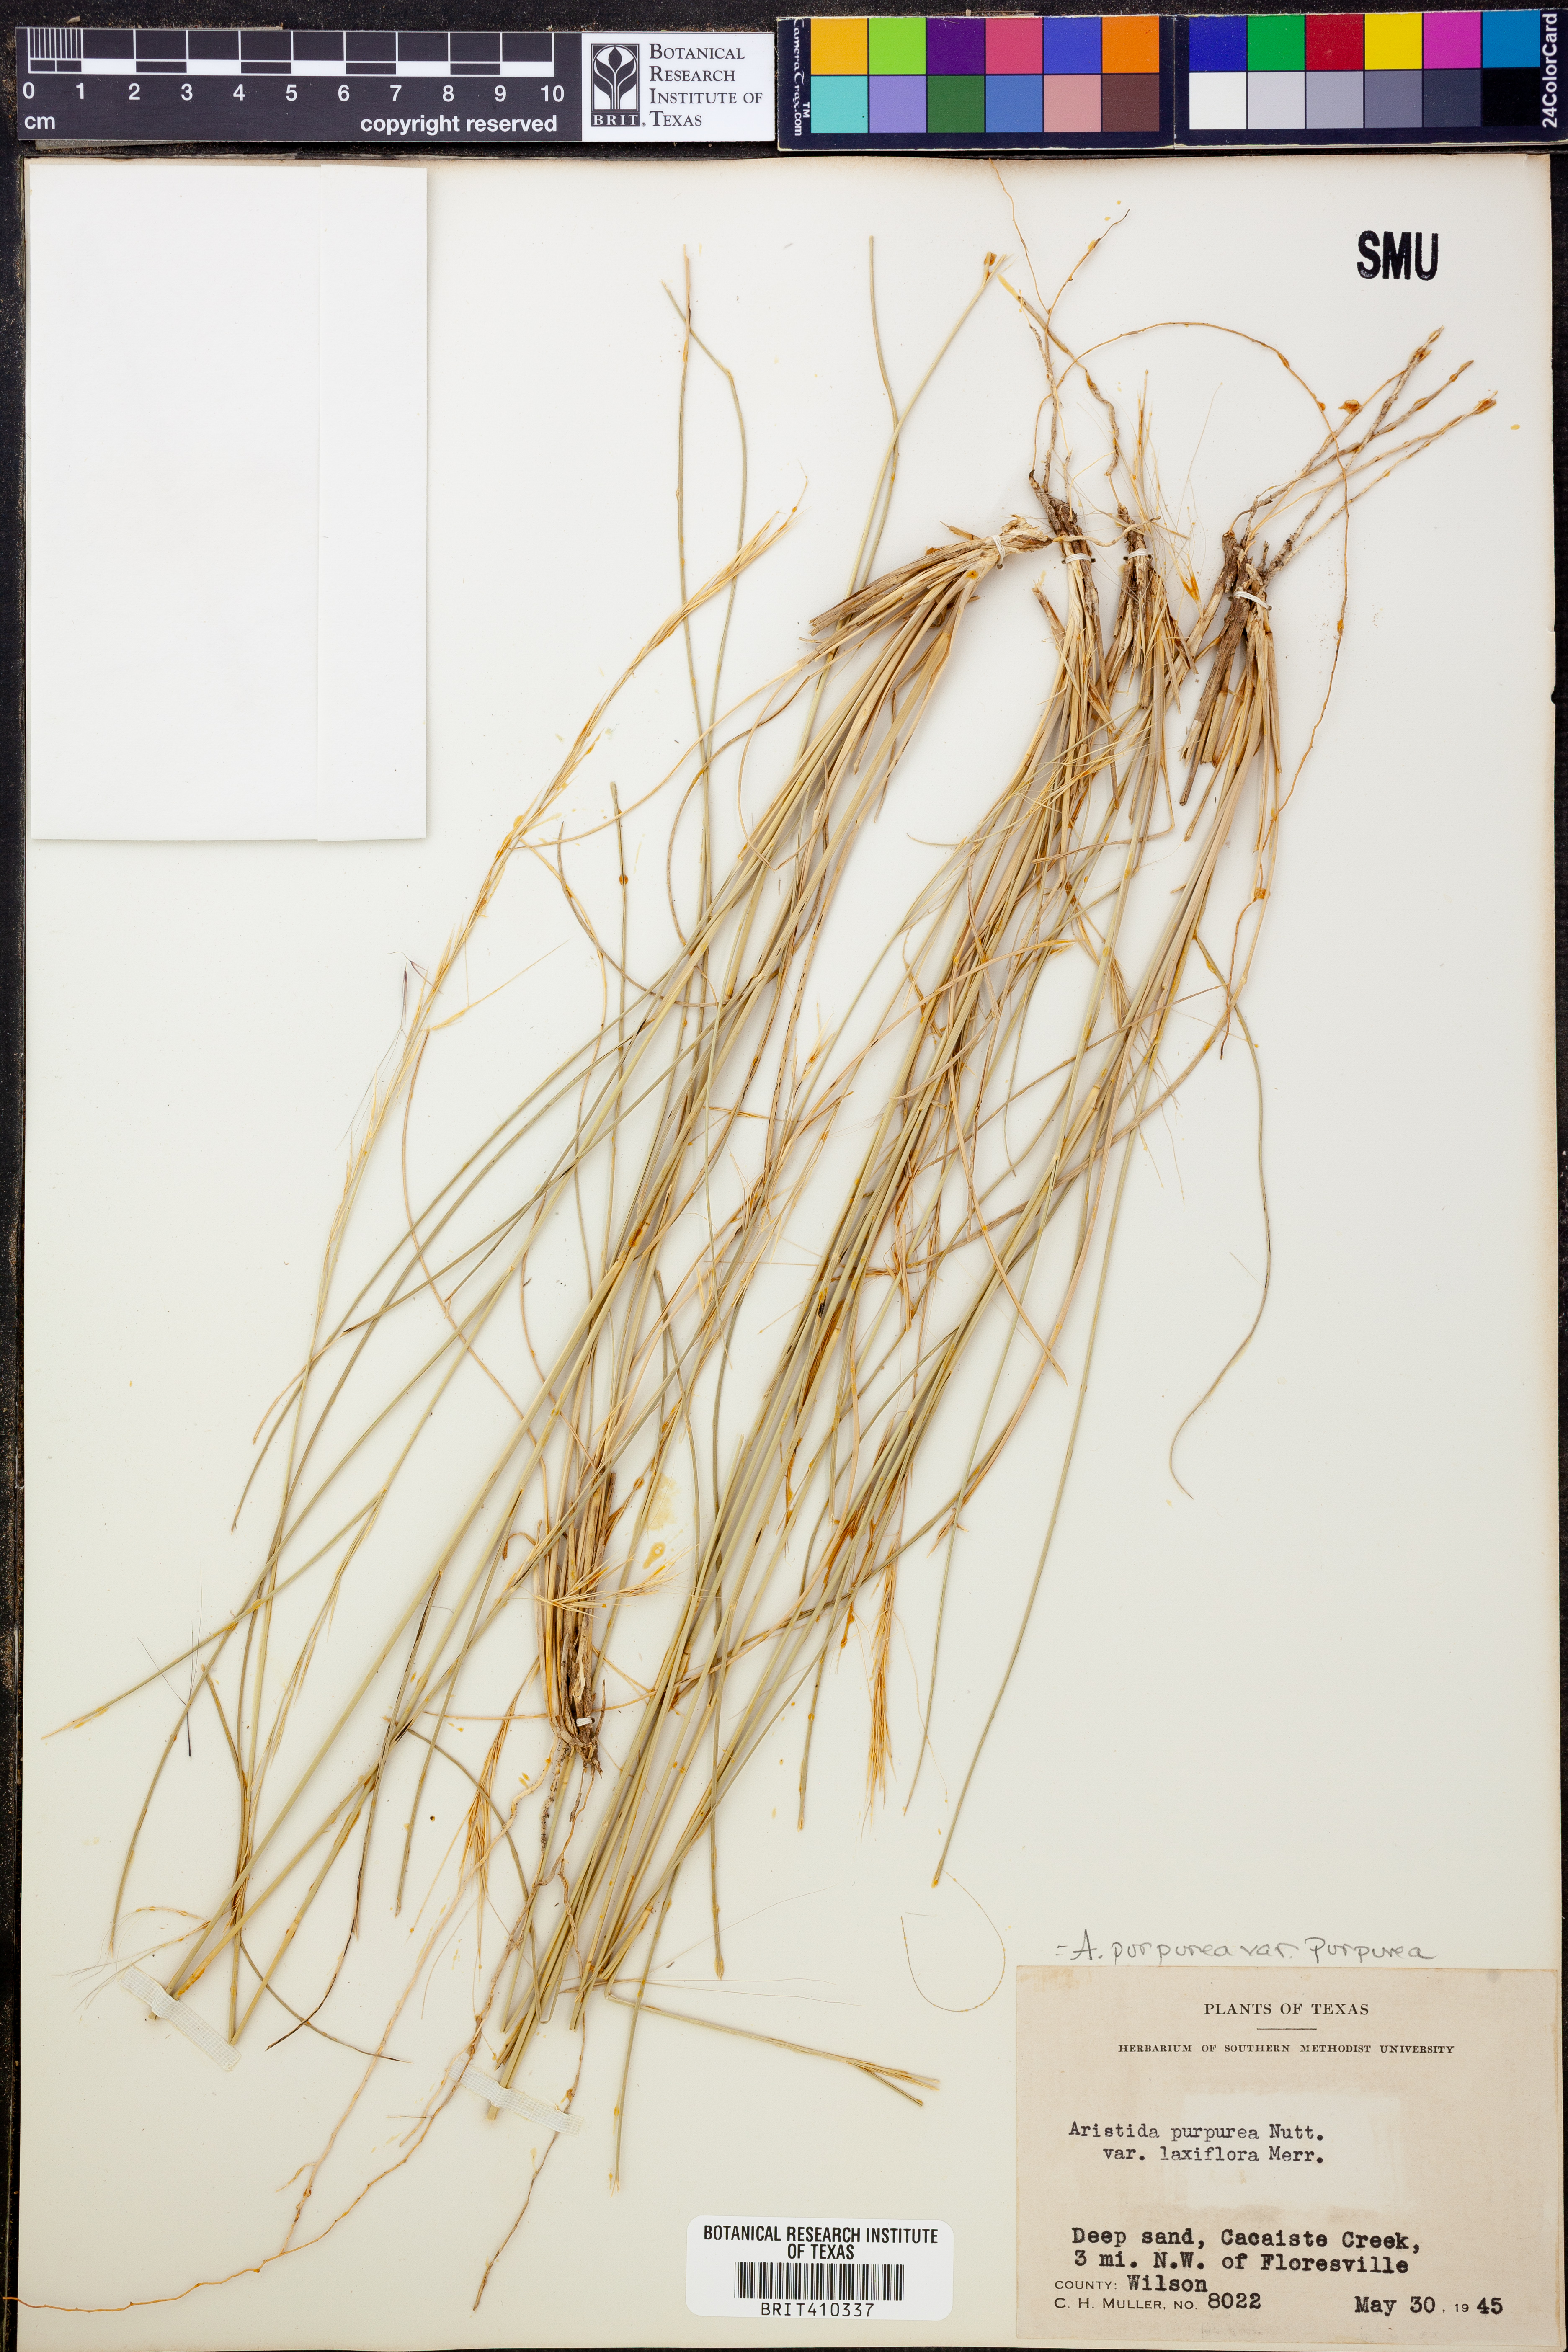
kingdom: Plantae
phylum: Tracheophyta
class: Liliopsida
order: Poales
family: Poaceae
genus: Aristida
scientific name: Aristida purpurea
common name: Purple threeawn
